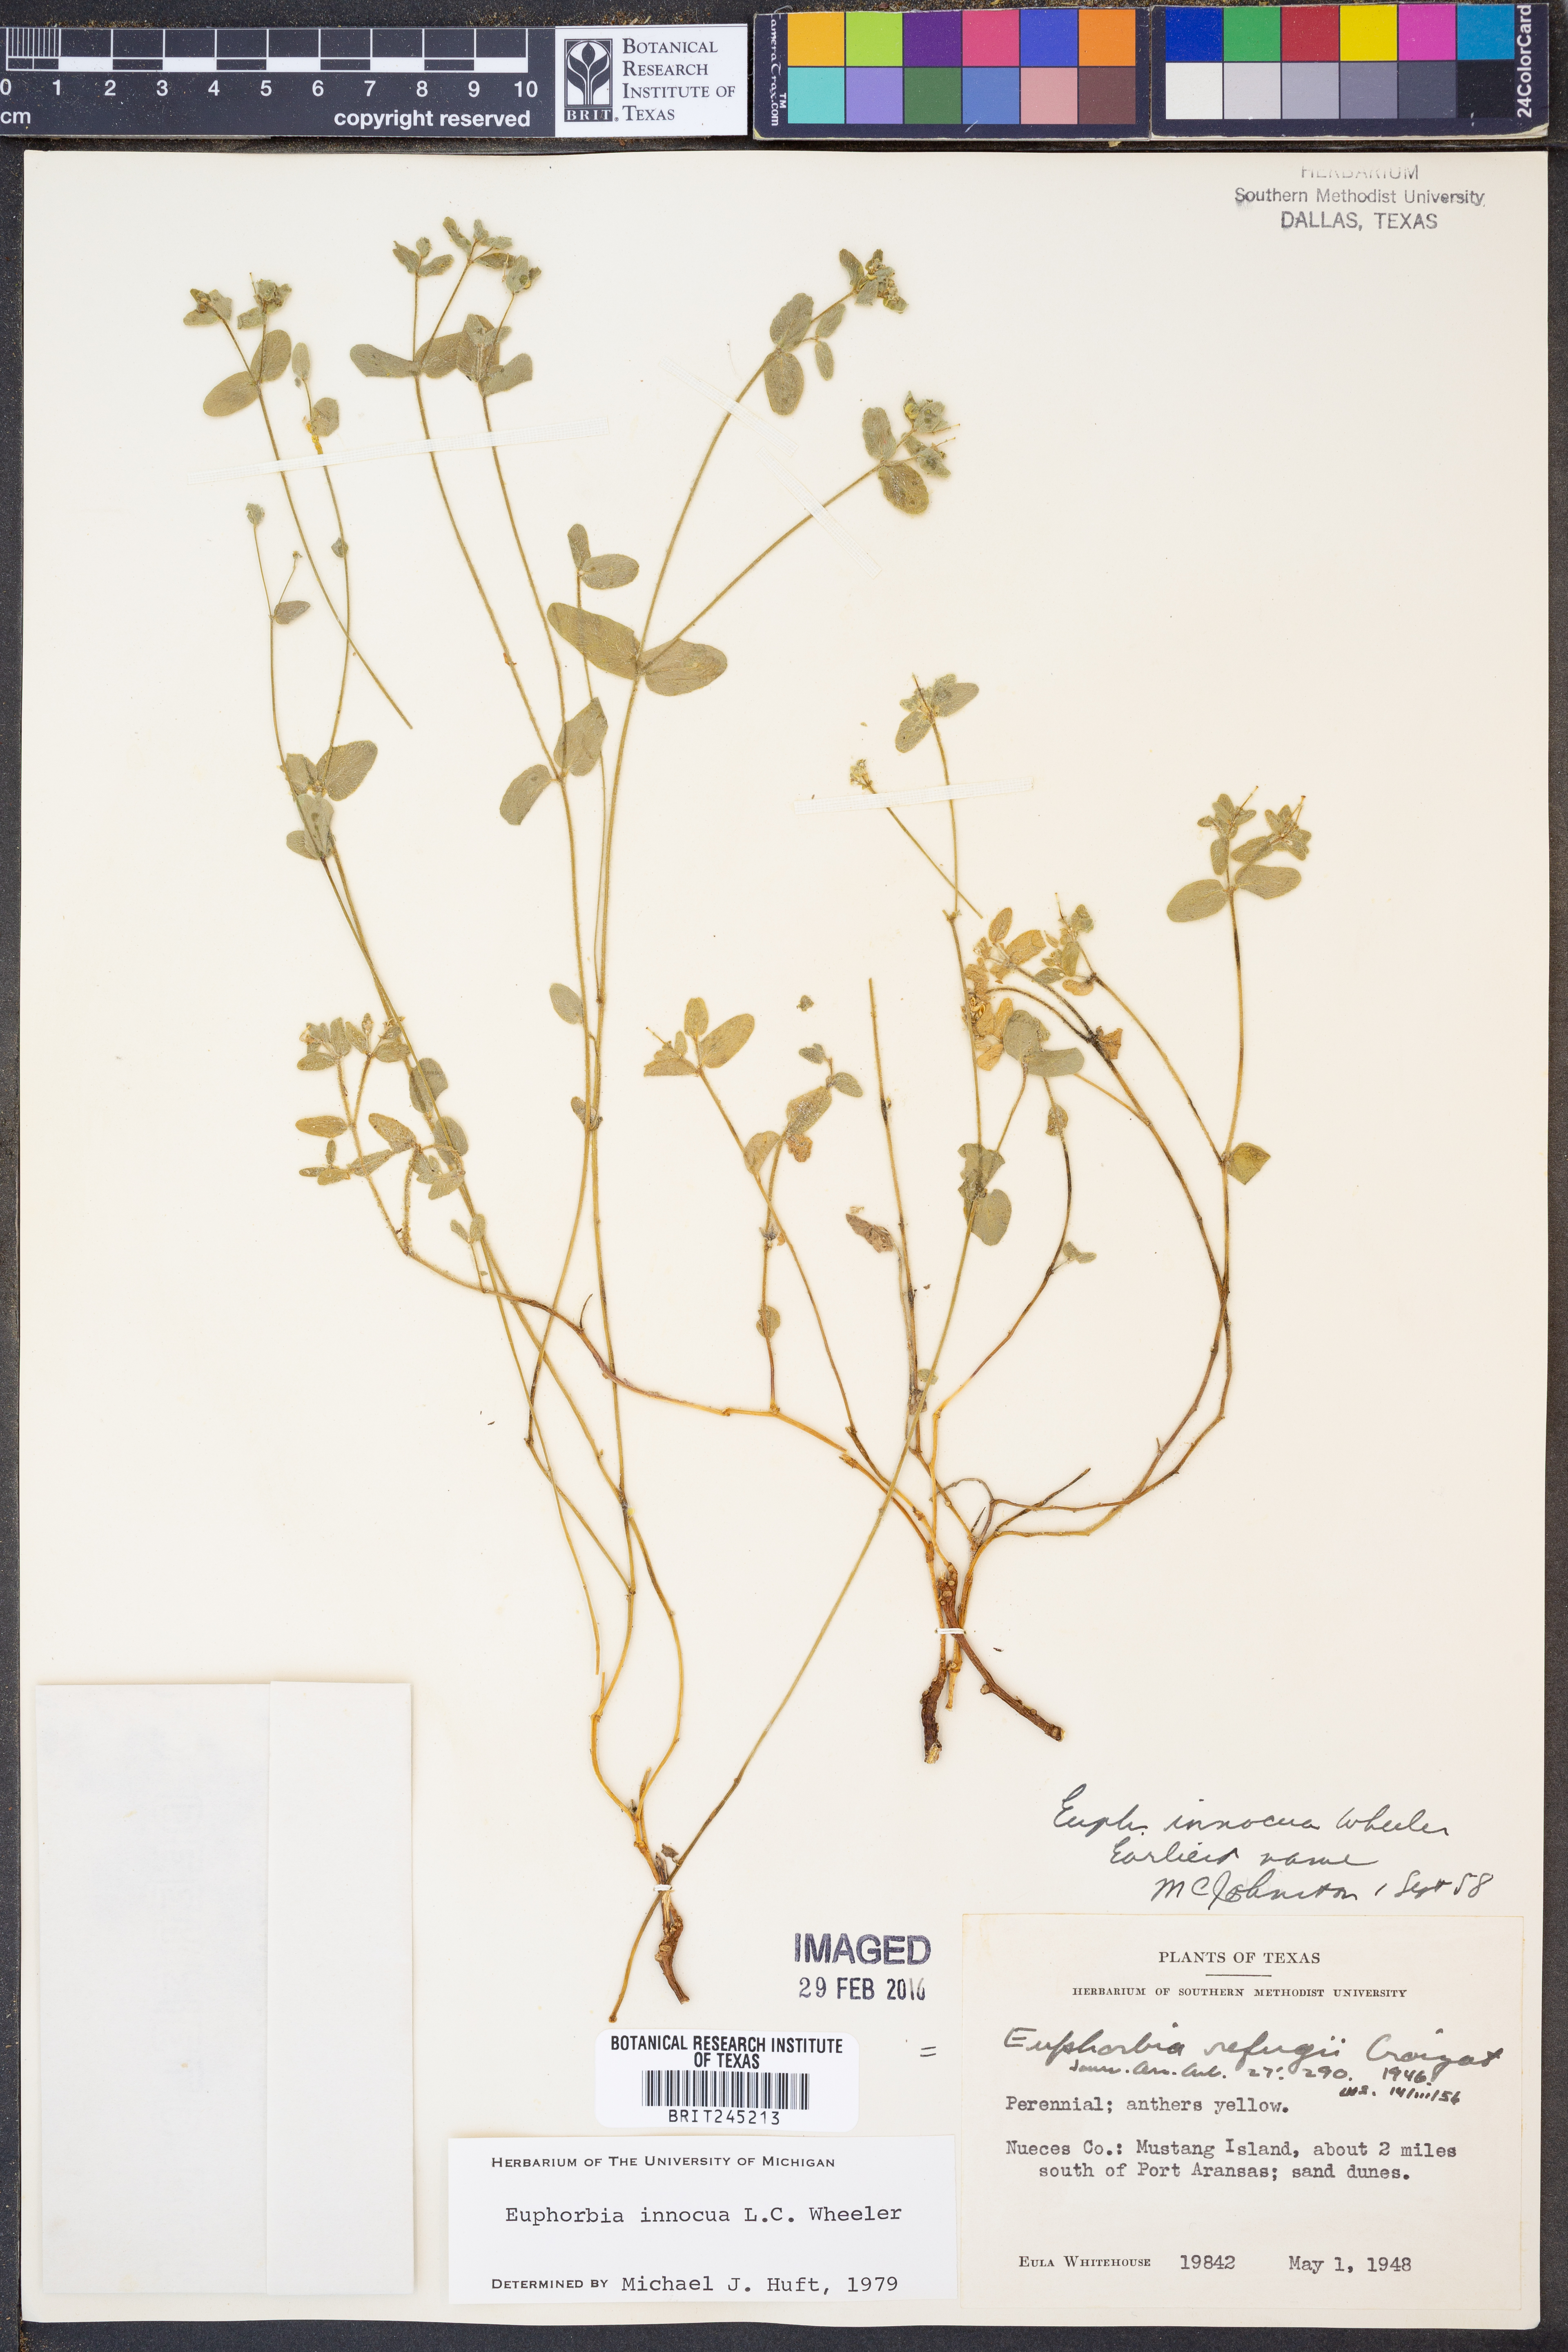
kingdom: Plantae
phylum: Tracheophyta
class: Magnoliopsida
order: Malpighiales
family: Euphorbiaceae
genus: Euphorbia
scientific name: Euphorbia innocua
